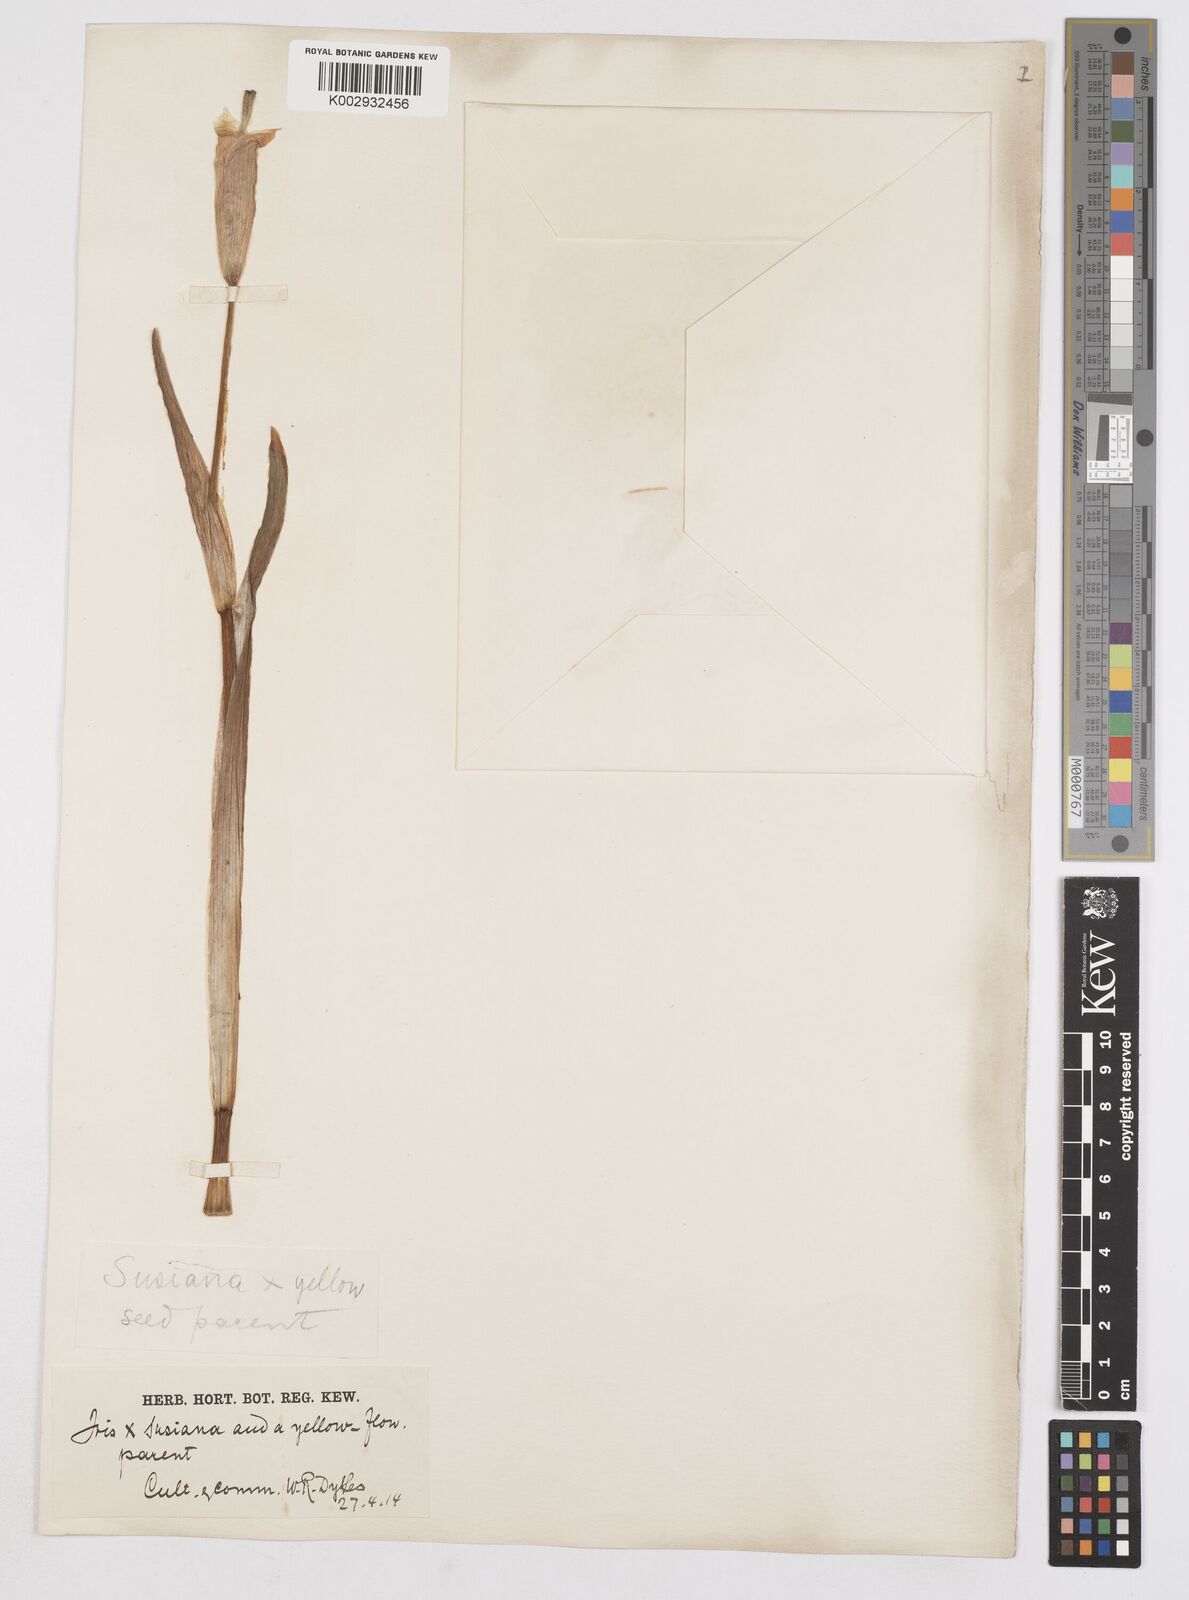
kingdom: Plantae
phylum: Tracheophyta
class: Liliopsida
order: Asparagales
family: Iridaceae
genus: Iris
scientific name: Iris susiana
